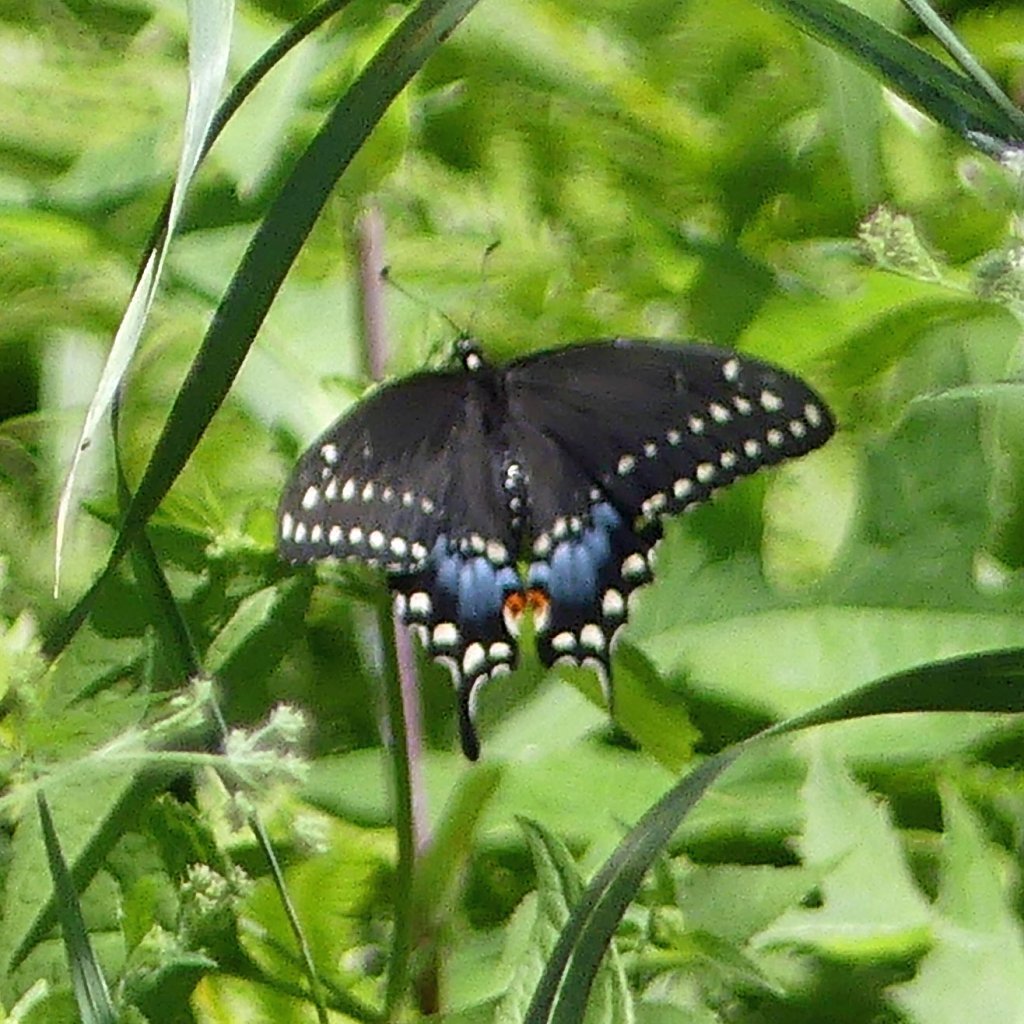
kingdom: Animalia
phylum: Arthropoda
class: Insecta
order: Lepidoptera
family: Papilionidae
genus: Papilio
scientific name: Papilio polyxenes
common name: Black Swallowtail
